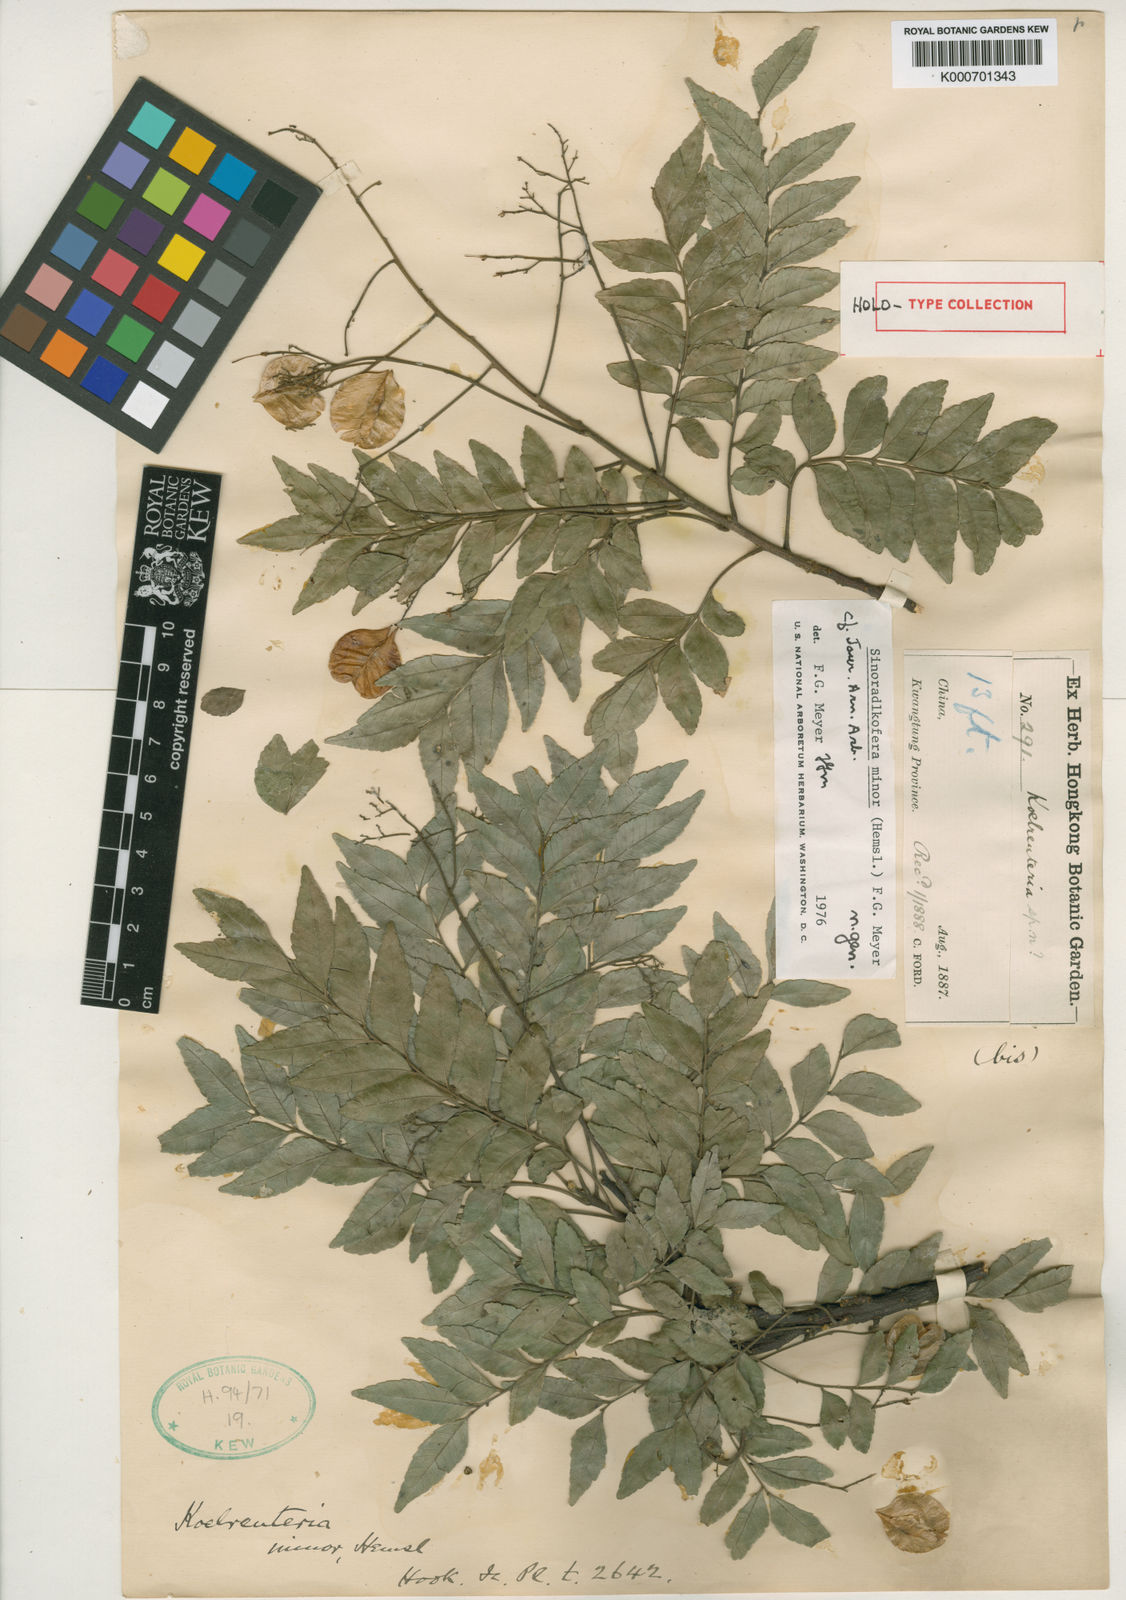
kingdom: Plantae
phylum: Tracheophyta
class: Magnoliopsida
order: Sapindales
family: Sapindaceae
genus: Sinoradlkofera
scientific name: Sinoradlkofera minor
